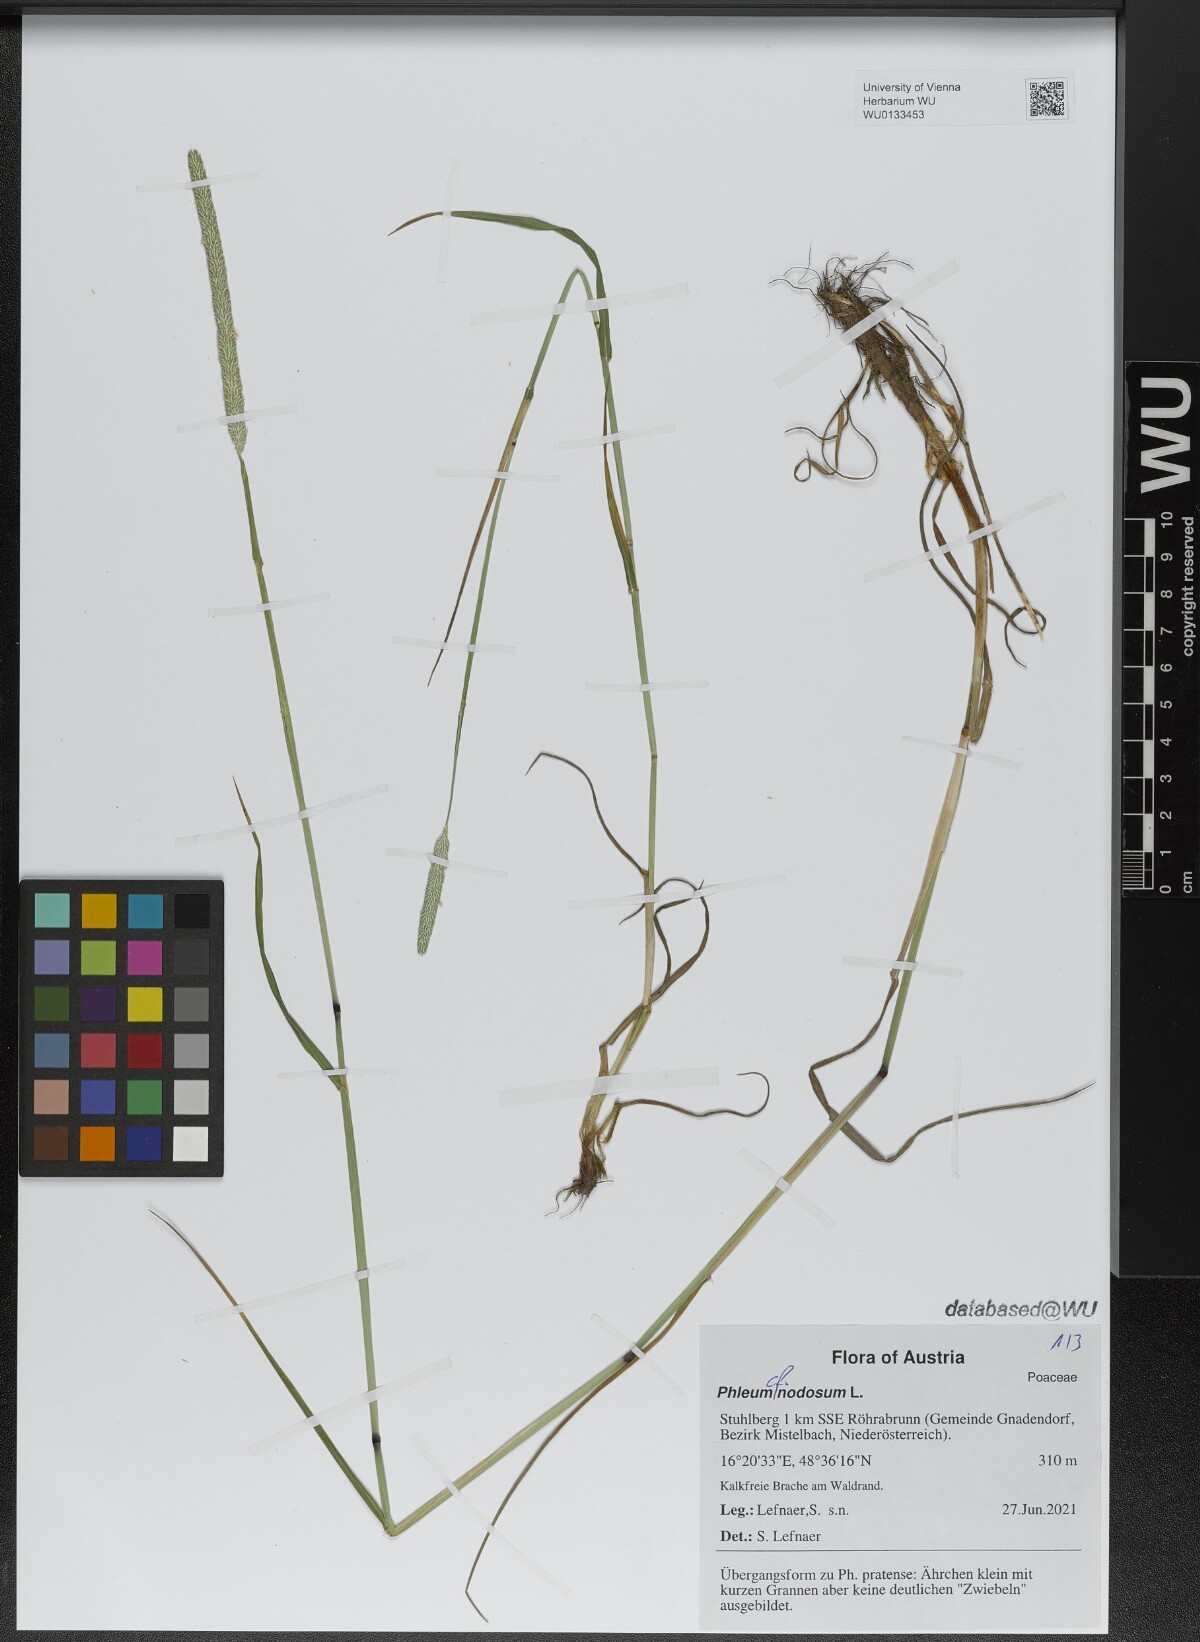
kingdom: Plantae
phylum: Tracheophyta
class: Liliopsida
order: Poales
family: Poaceae
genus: Phleum
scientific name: Phleum pratense
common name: Timothy grass
